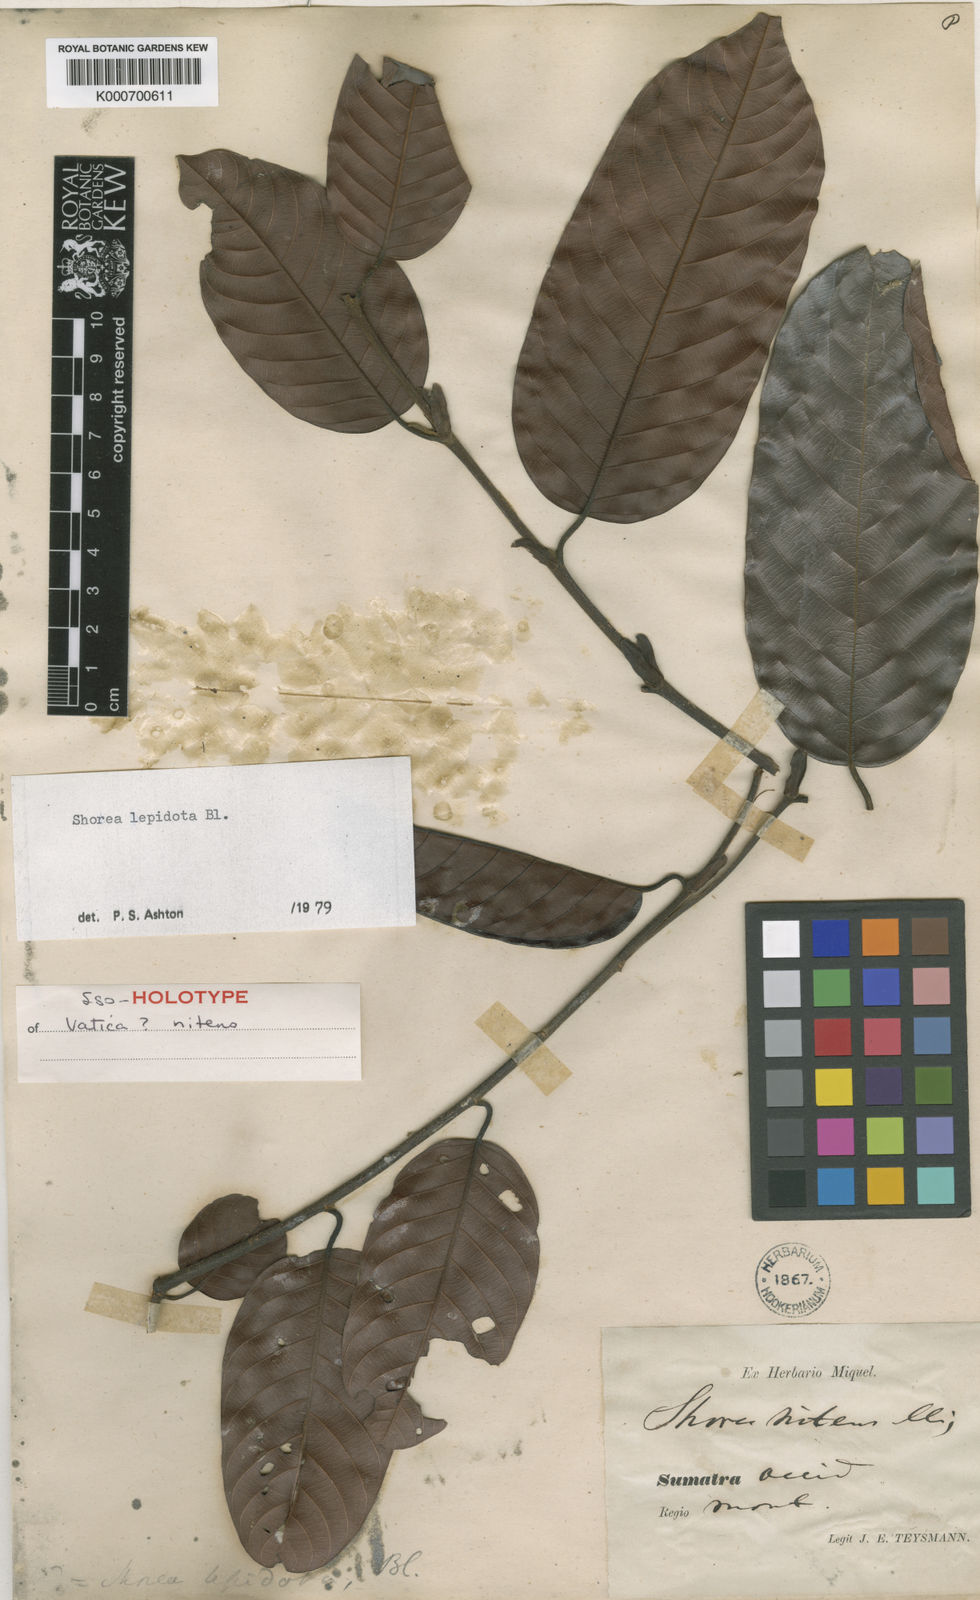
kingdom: Plantae
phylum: Tracheophyta
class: Magnoliopsida
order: Malvales
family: Dipterocarpaceae
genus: Shorea
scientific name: Shorea lepidota
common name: Light red meranti
